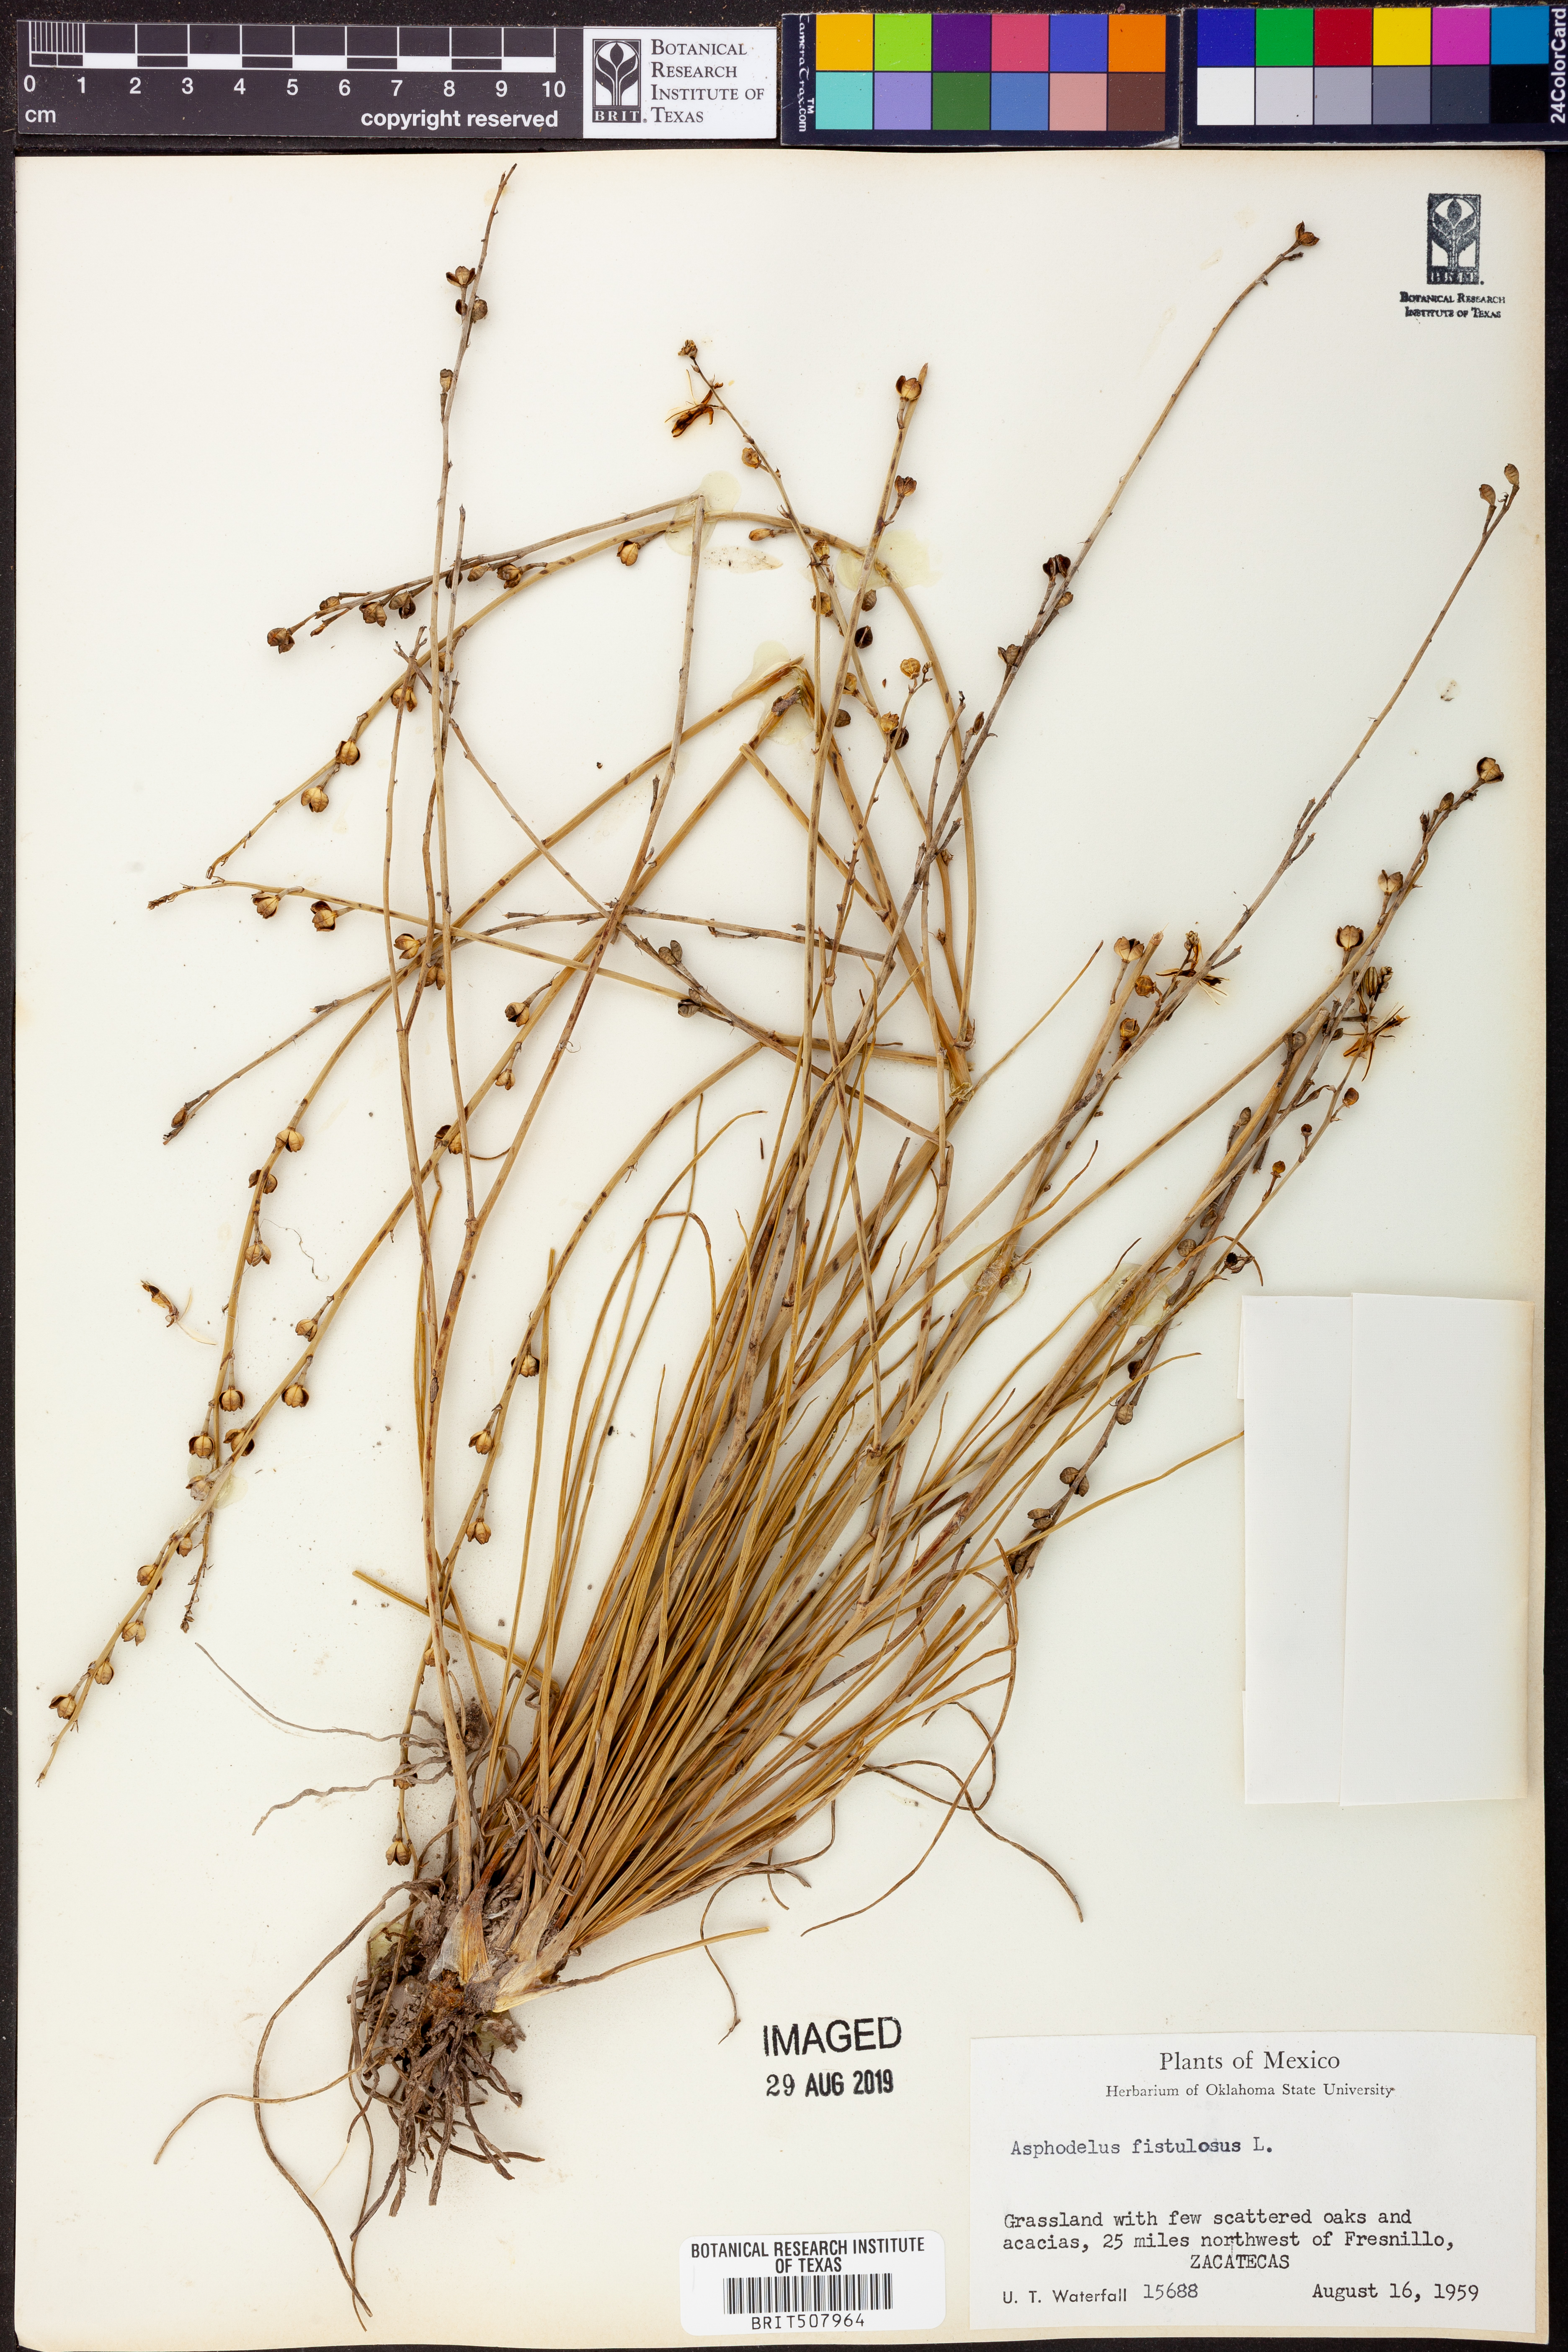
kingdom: Plantae
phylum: Tracheophyta
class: Liliopsida
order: Asparagales
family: Asphodelaceae
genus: Asphodelus
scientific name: Asphodelus fistulosus
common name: Onionweed
